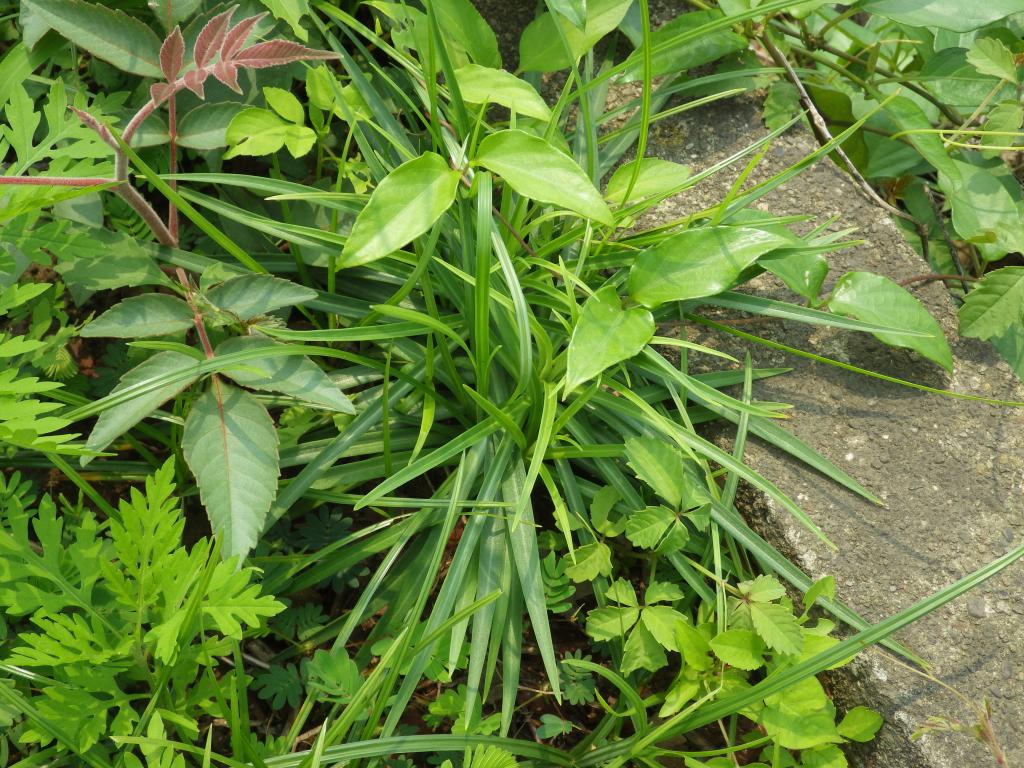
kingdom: Plantae
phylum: Tracheophyta
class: Liliopsida
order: Liliales
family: Liliaceae
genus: Lilium
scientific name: Lilium formosanum
